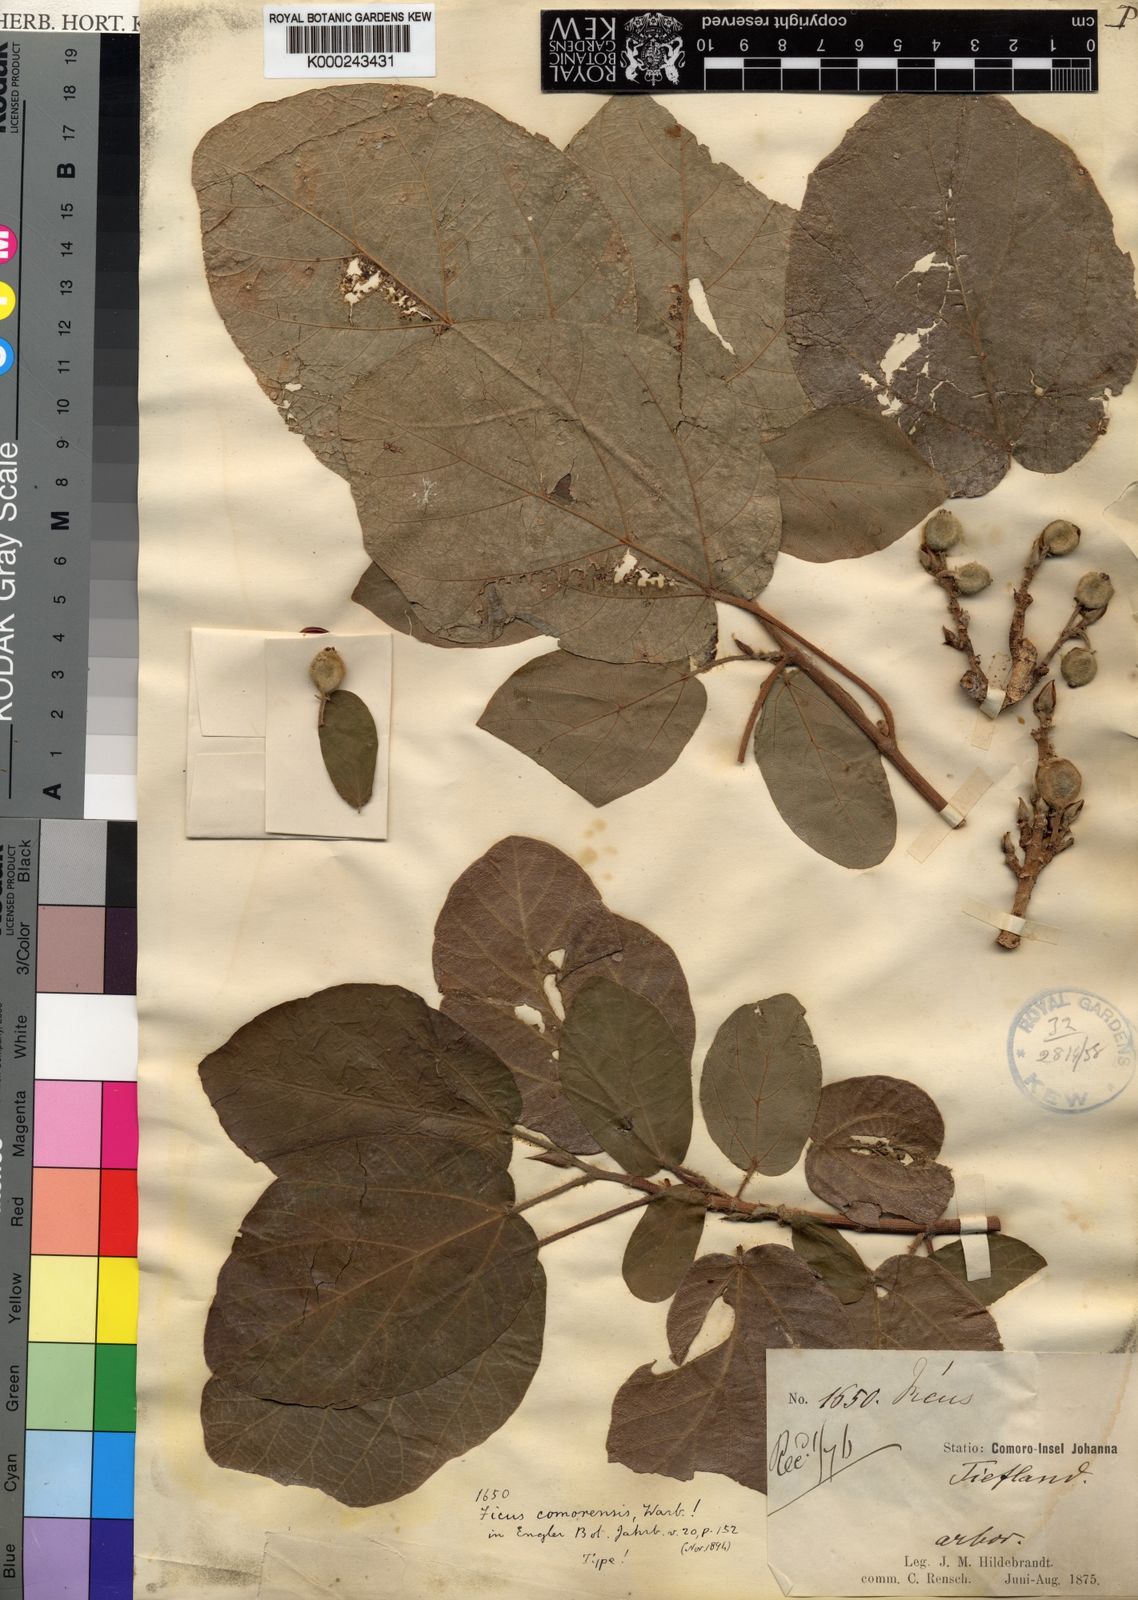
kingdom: Plantae
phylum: Tracheophyta
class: Magnoliopsida
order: Rosales
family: Moraceae
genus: Ficus
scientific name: Ficus sycomorus
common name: Sycomore
